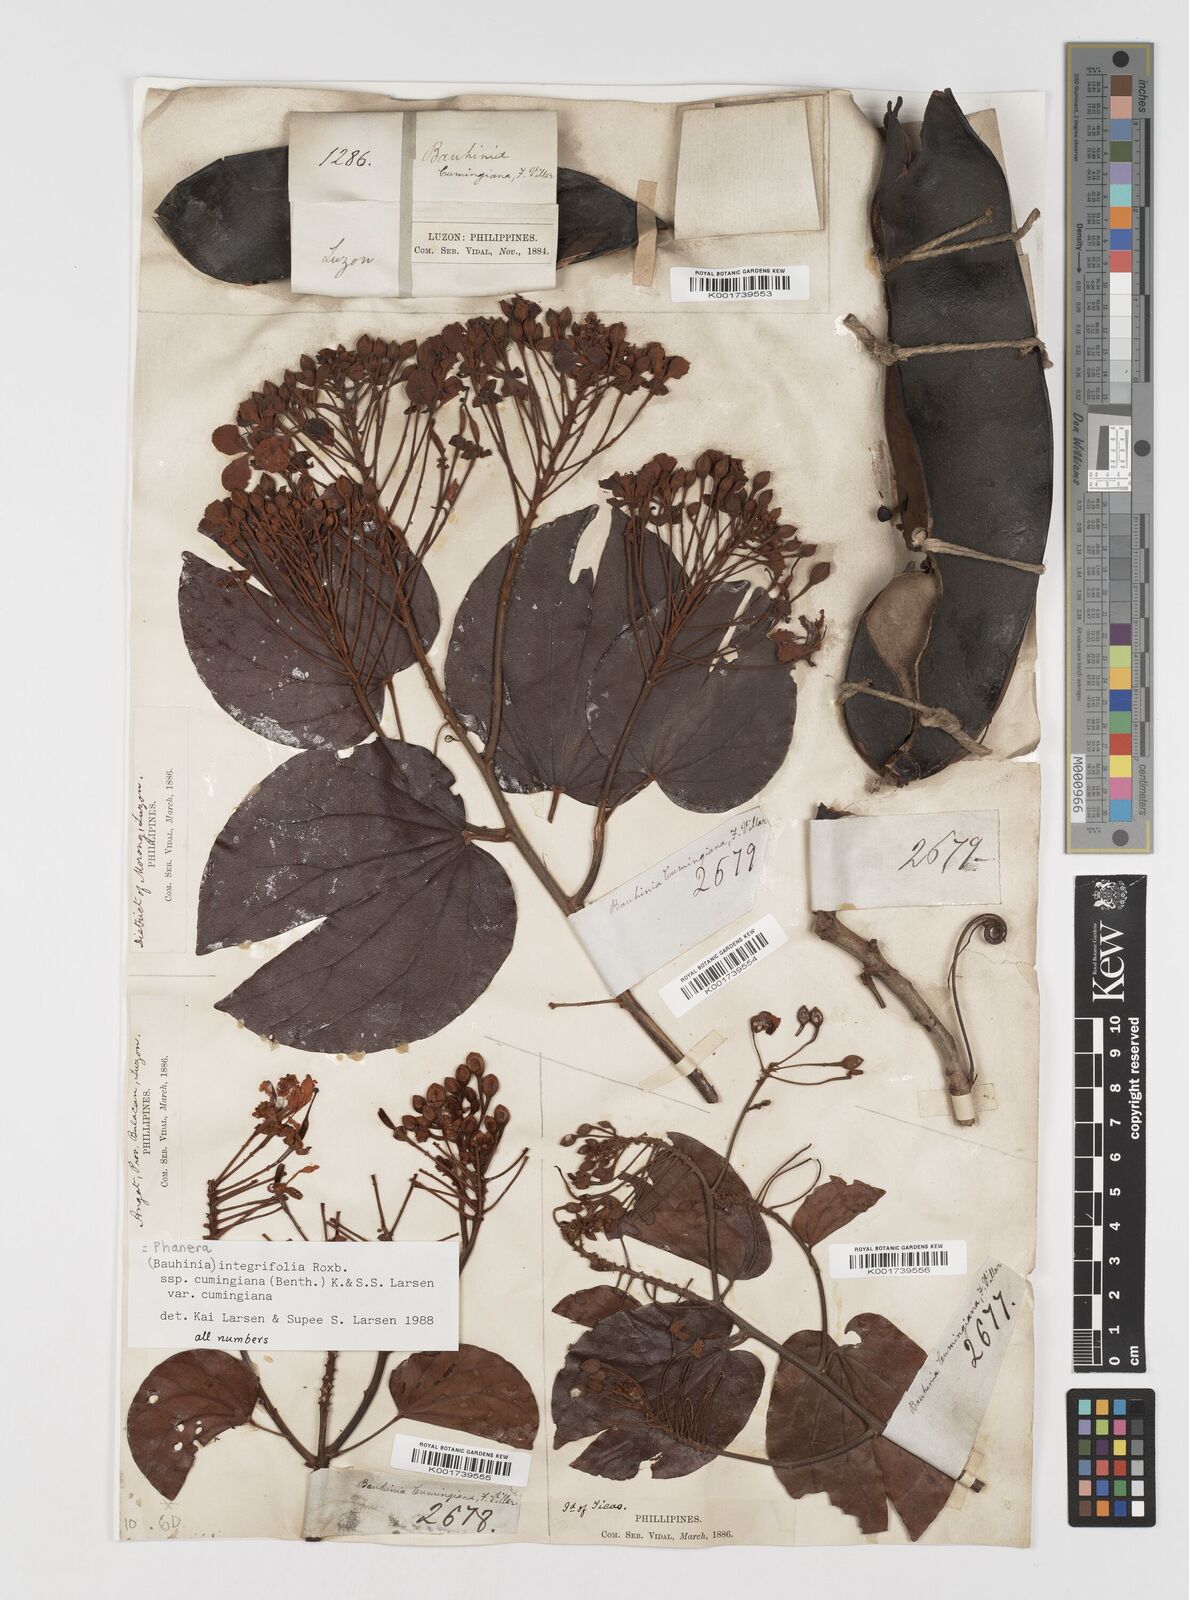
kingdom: Plantae
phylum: Tracheophyta
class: Magnoliopsida
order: Fabales
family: Fabaceae
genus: Phanera
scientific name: Phanera integrifolia
